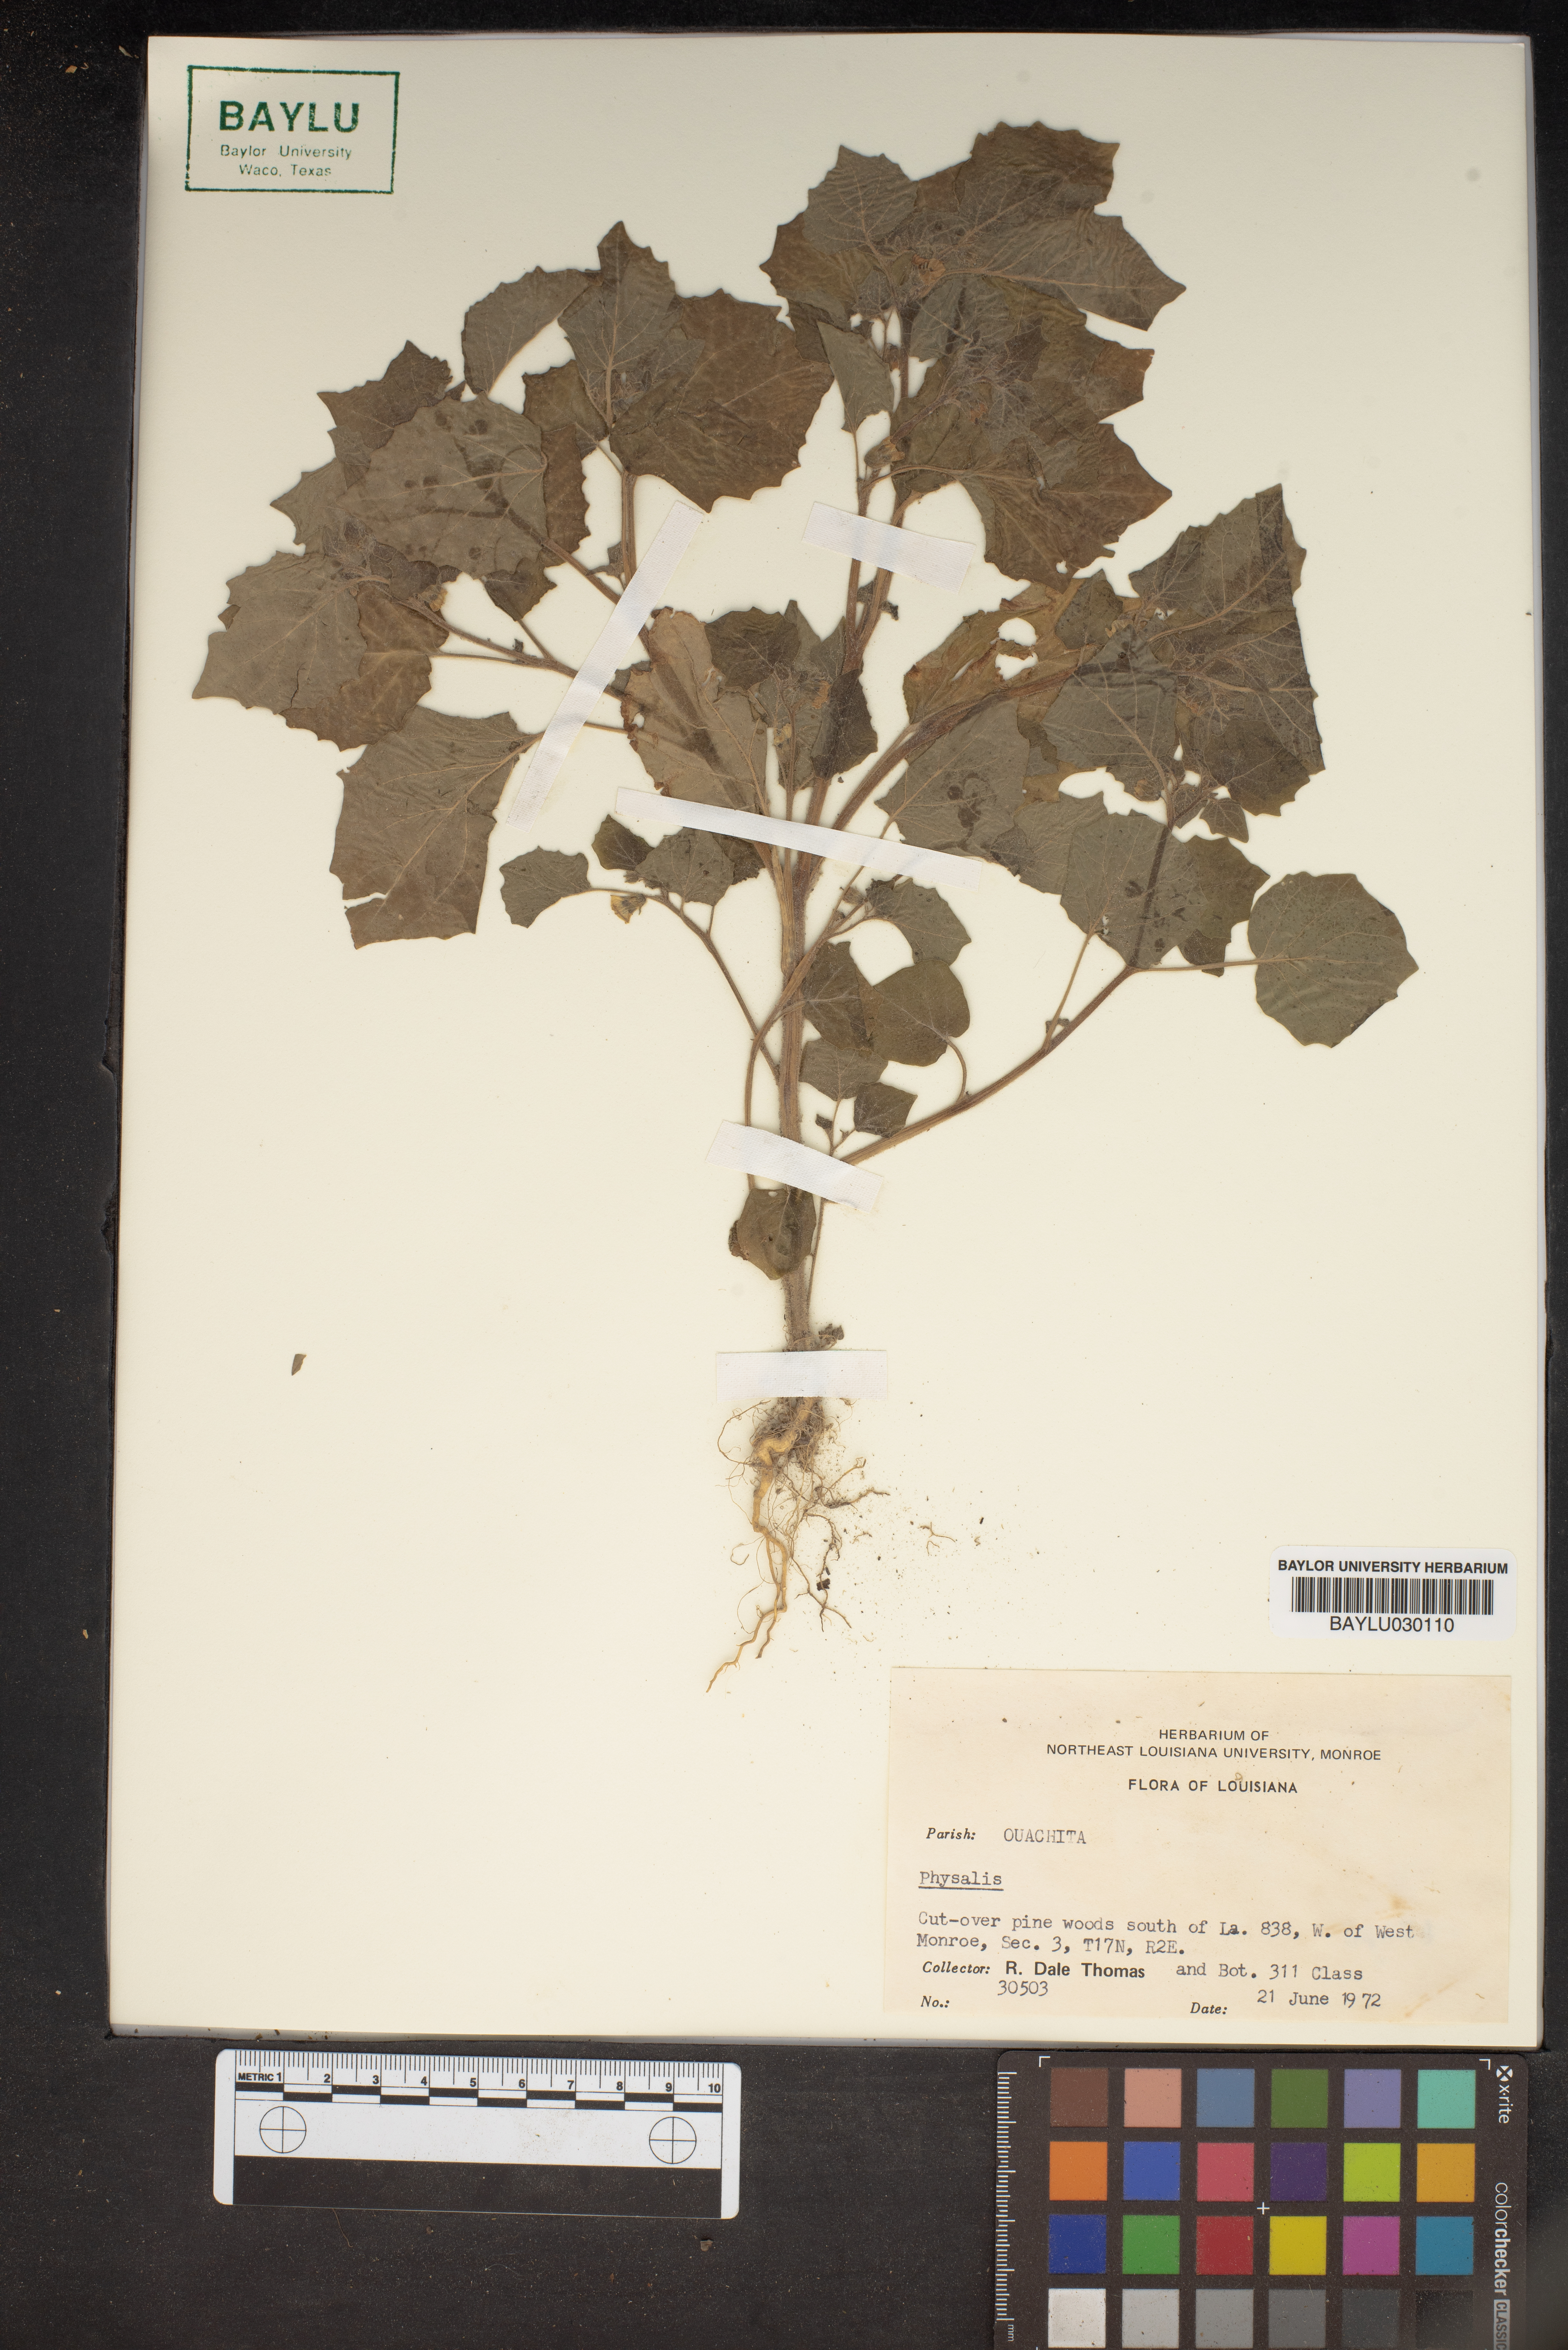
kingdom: Plantae
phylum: Tracheophyta
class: Magnoliopsida
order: Solanales
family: Solanaceae
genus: Physalis
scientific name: Physalis
